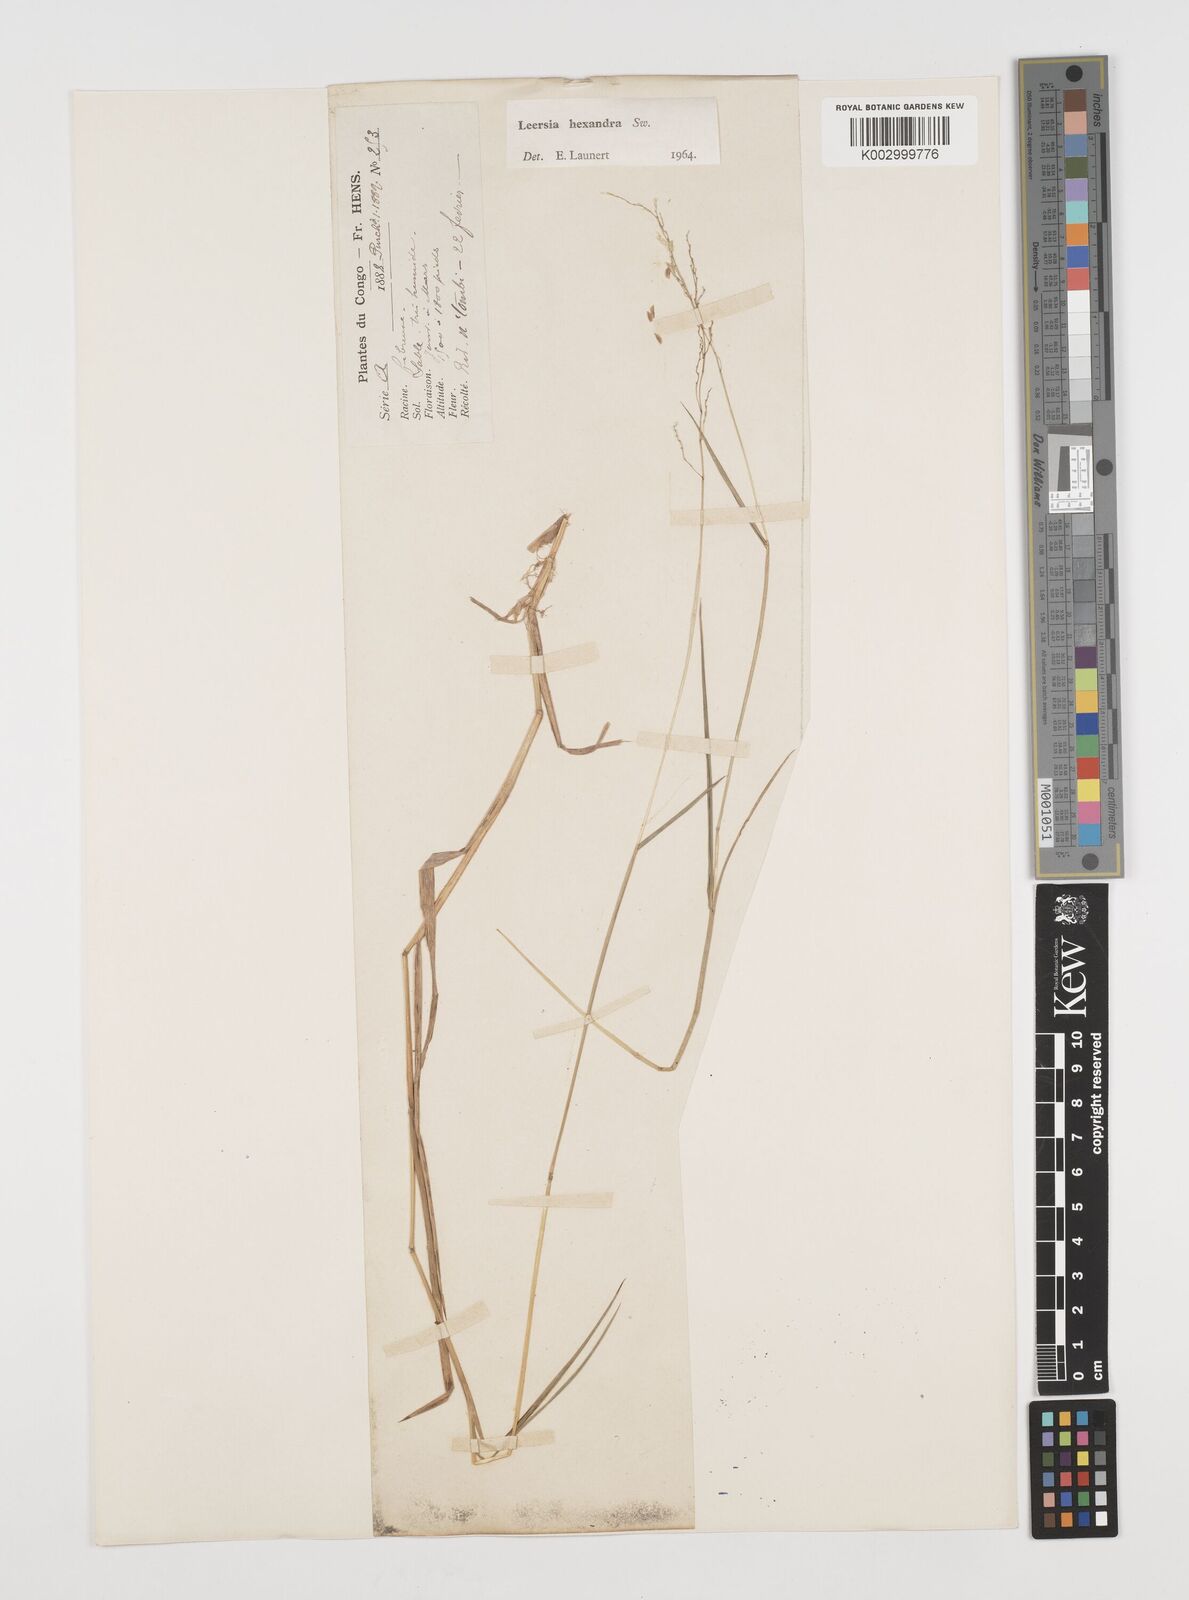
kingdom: Plantae
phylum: Tracheophyta
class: Liliopsida
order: Poales
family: Poaceae
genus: Leersia
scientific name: Leersia hexandra
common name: Southern cut grass
